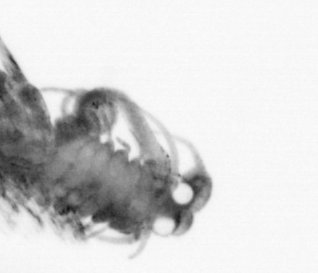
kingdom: Animalia
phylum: Annelida
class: Polychaeta
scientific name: Polychaeta
